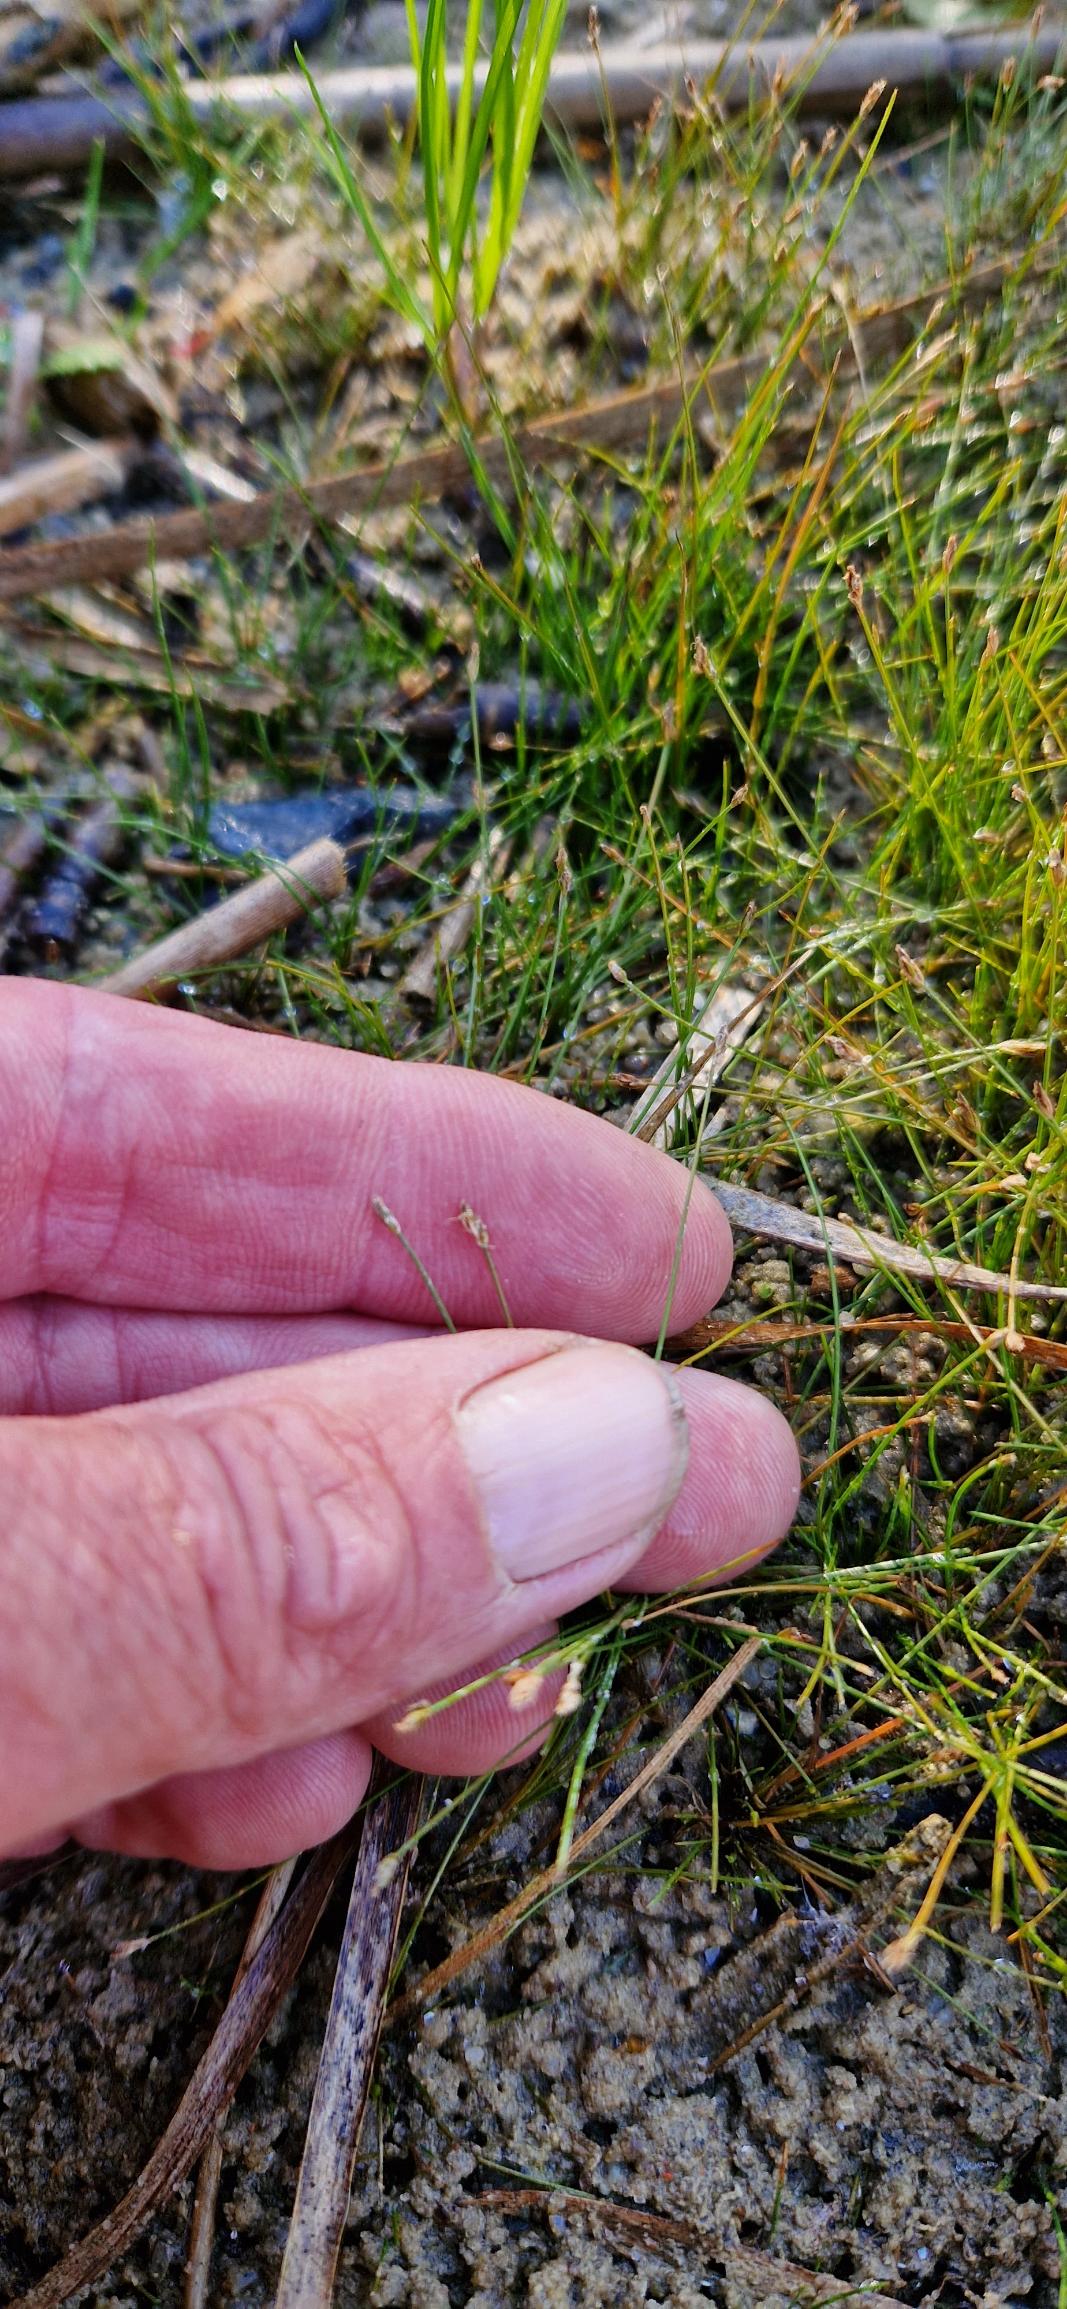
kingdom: Plantae
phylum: Tracheophyta
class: Liliopsida
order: Poales
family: Cyperaceae
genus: Eleocharis
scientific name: Eleocharis acicularis
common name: Nåle-sumpstrå
